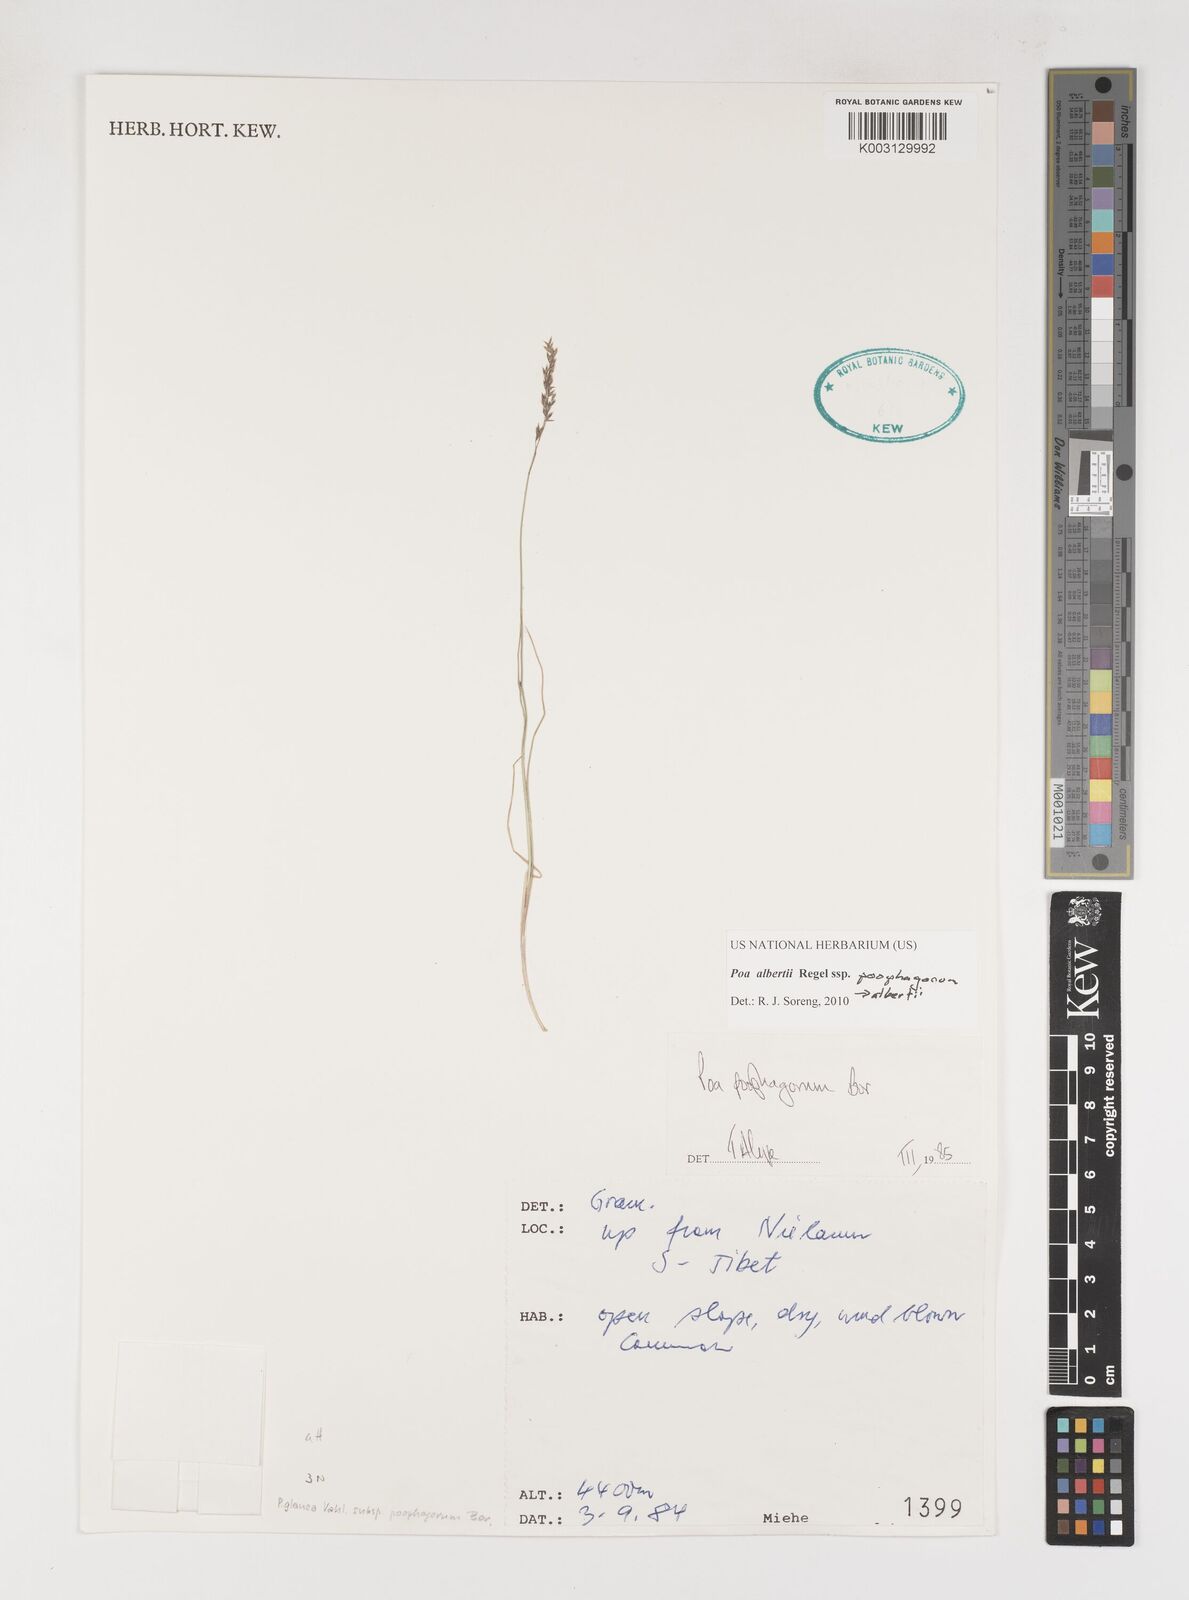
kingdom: Plantae
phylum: Tracheophyta
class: Liliopsida
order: Poales
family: Poaceae
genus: Poa
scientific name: Poa alberti
